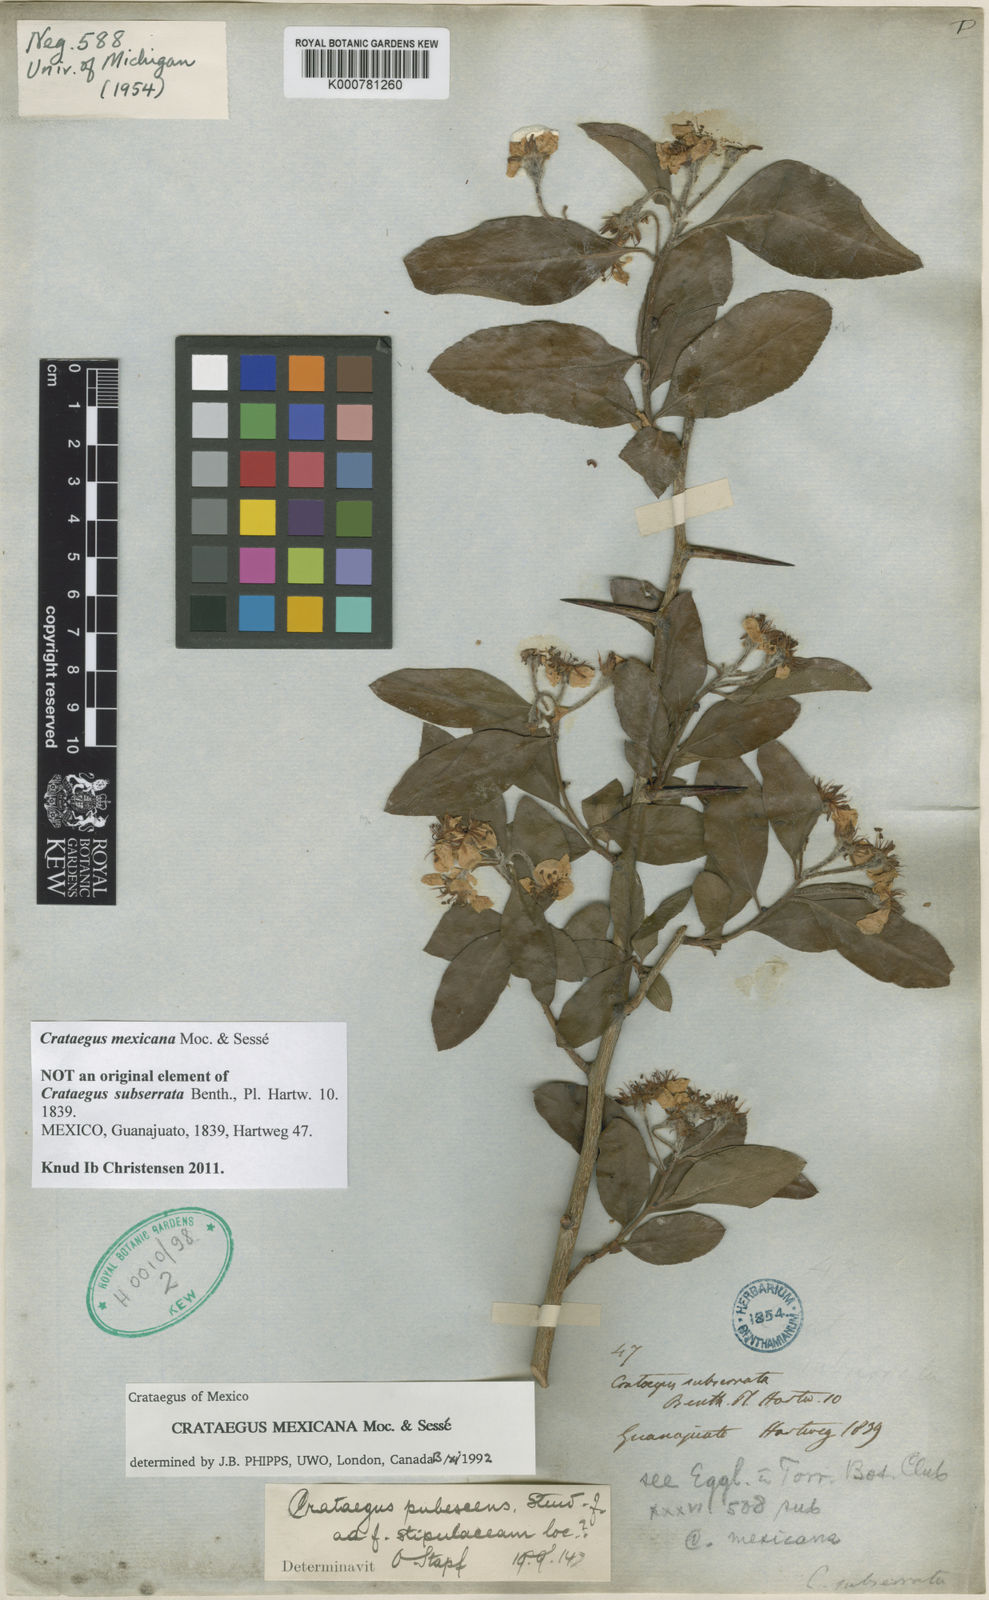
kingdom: Plantae
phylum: Tracheophyta
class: Magnoliopsida
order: Rosales
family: Rosaceae
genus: Crataegus
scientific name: Crataegus
